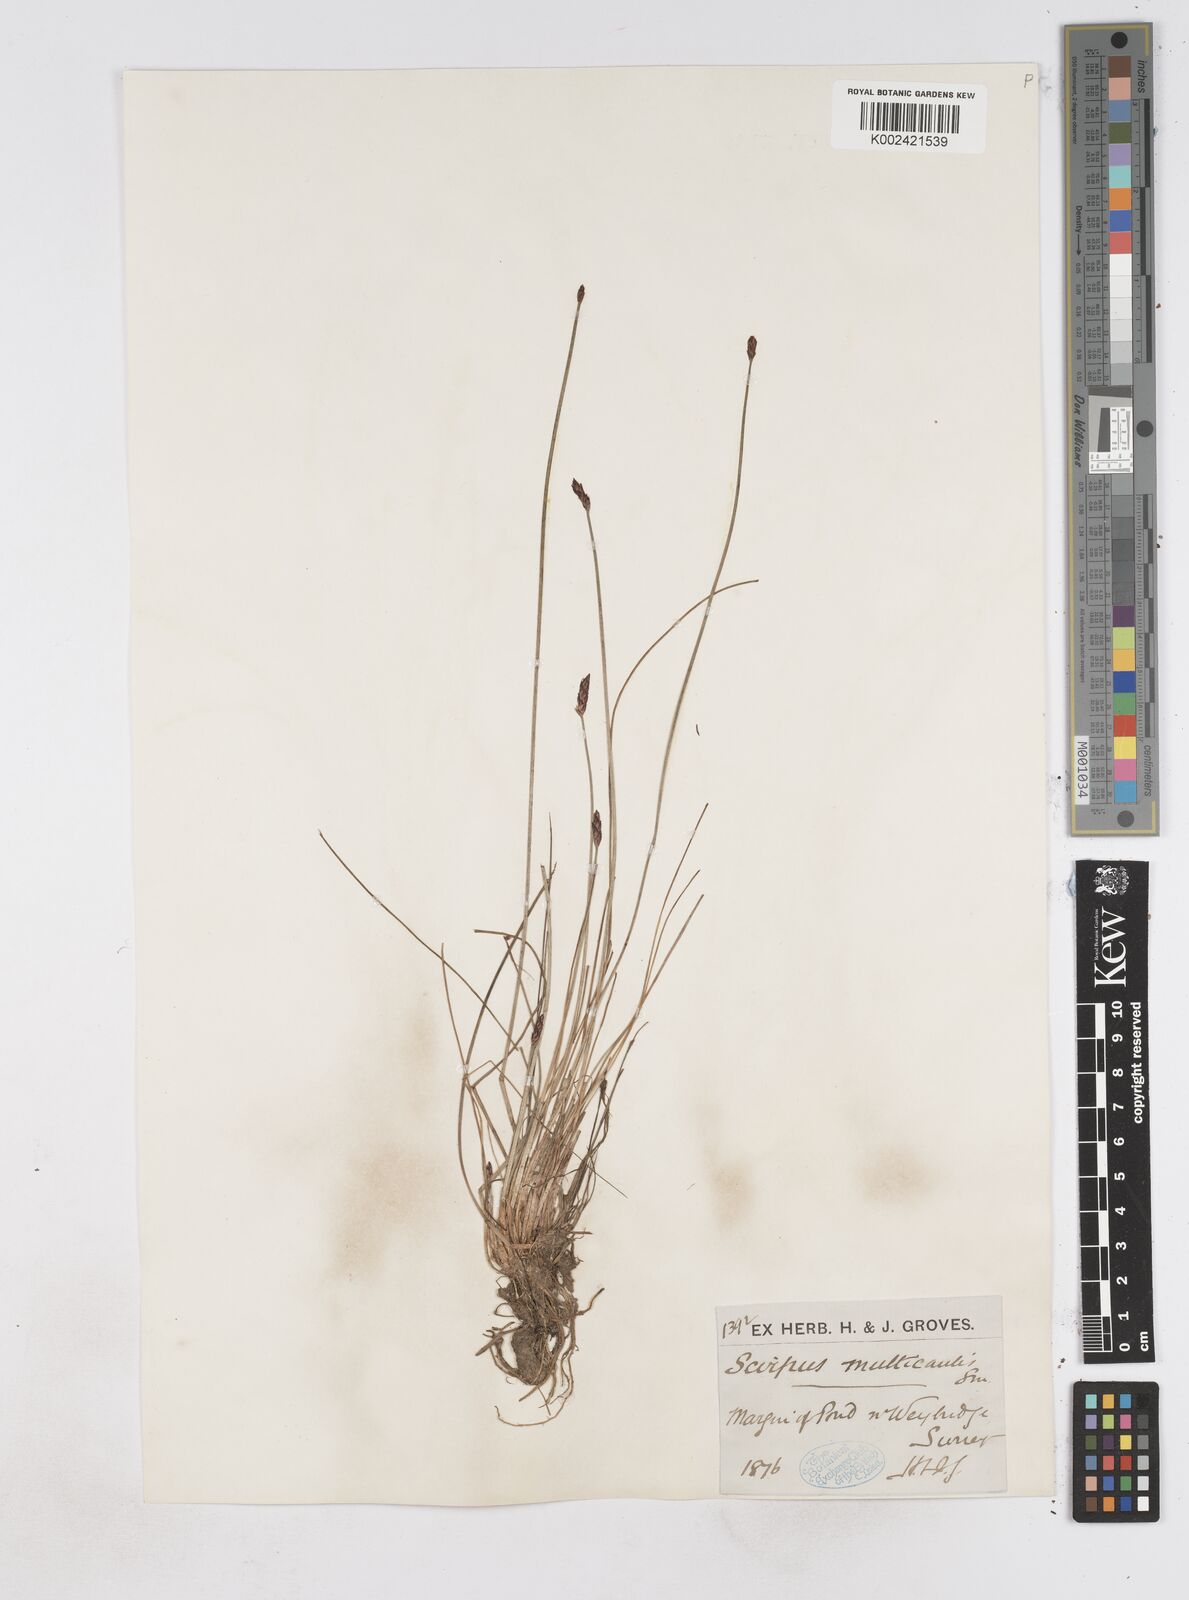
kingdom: Plantae
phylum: Tracheophyta
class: Liliopsida
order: Poales
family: Cyperaceae
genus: Eleocharis
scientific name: Eleocharis multicaulis
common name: Many-stalked spike-rush
